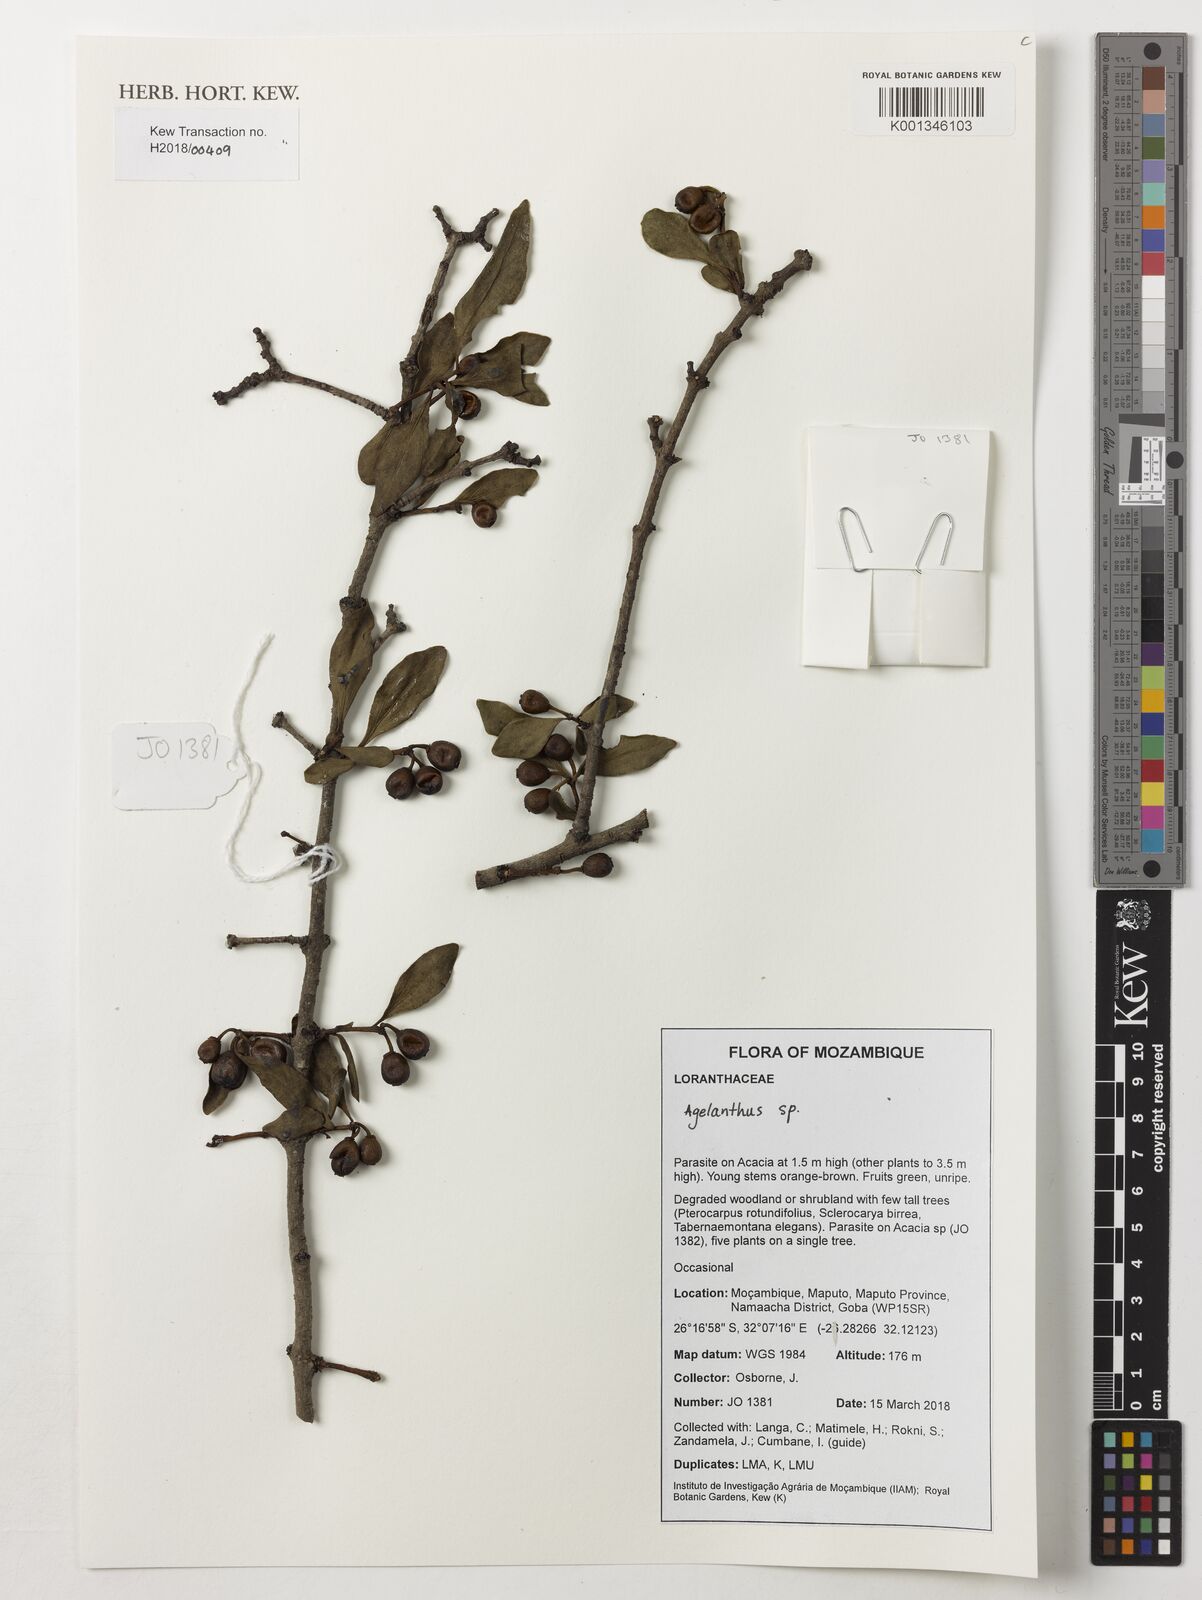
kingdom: Plantae
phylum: Tracheophyta
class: Magnoliopsida
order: Santalales
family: Loranthaceae
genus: Agelanthus
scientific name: Agelanthus
